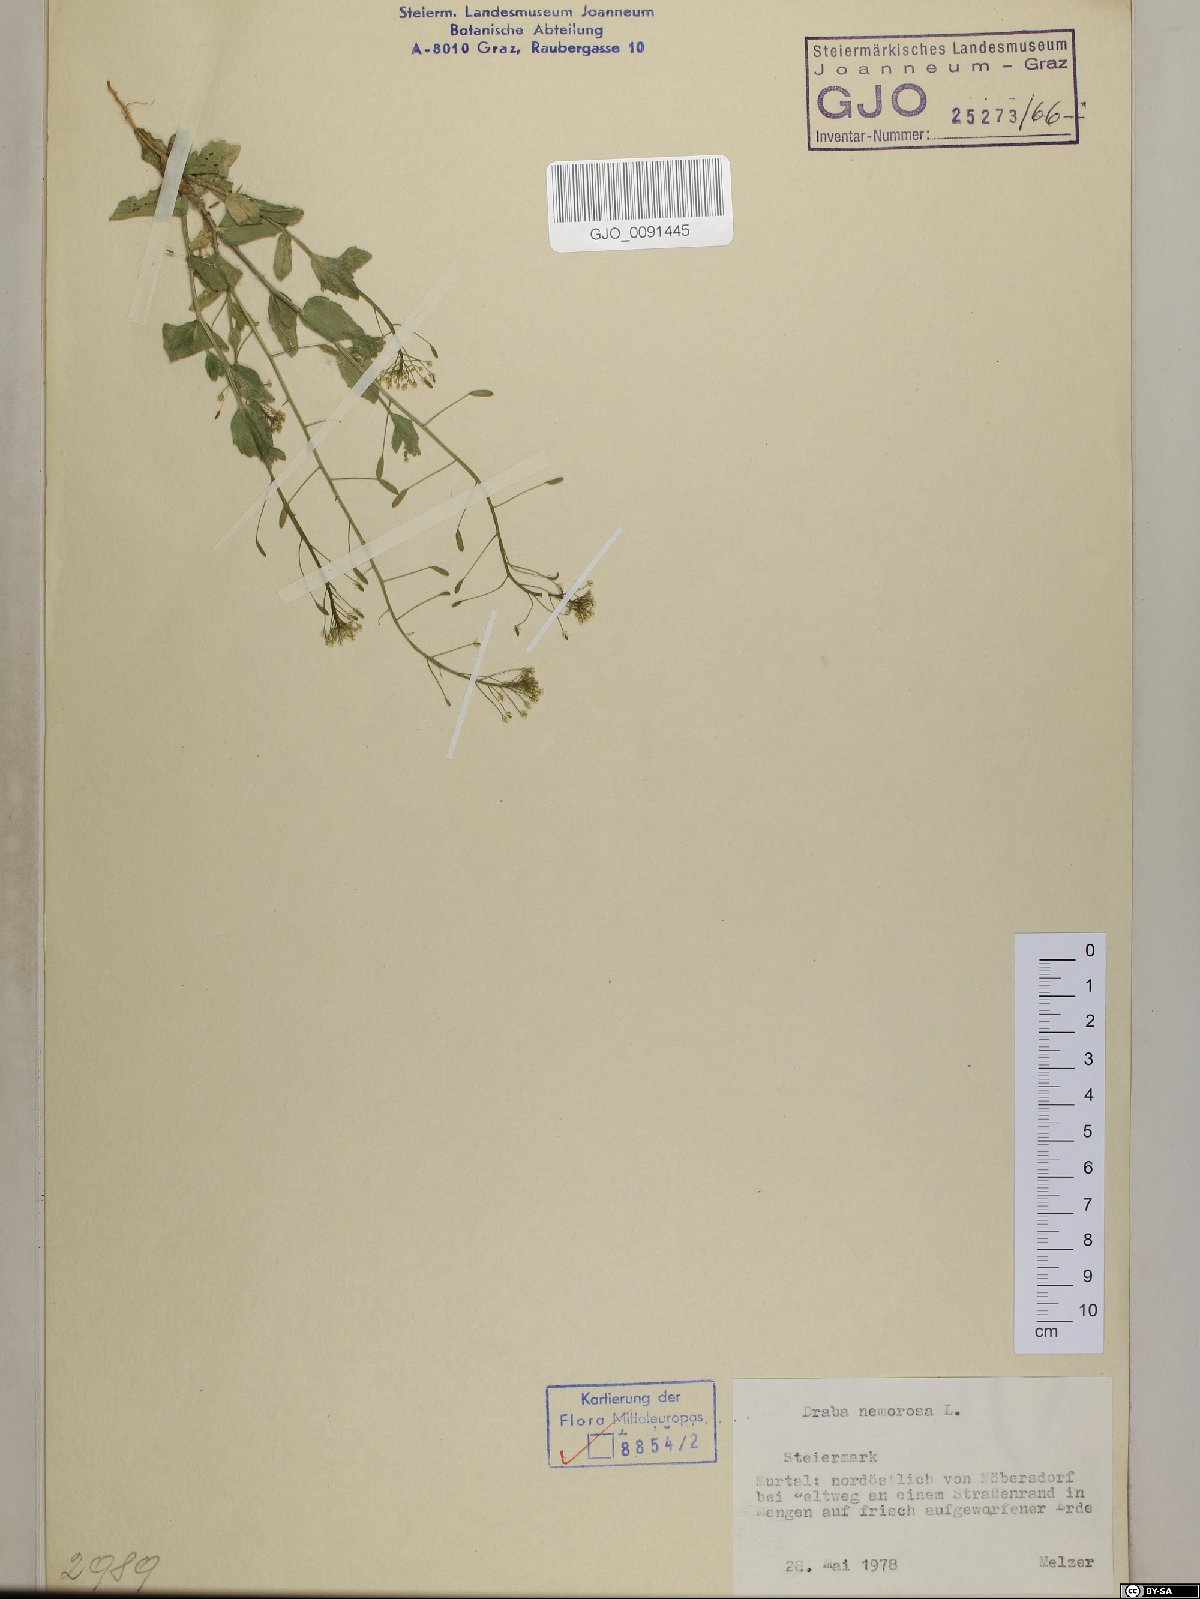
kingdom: Plantae
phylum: Tracheophyta
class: Magnoliopsida
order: Brassicales
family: Brassicaceae
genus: Draba
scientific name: Draba nemorosa
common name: Wood whitlow-grass
